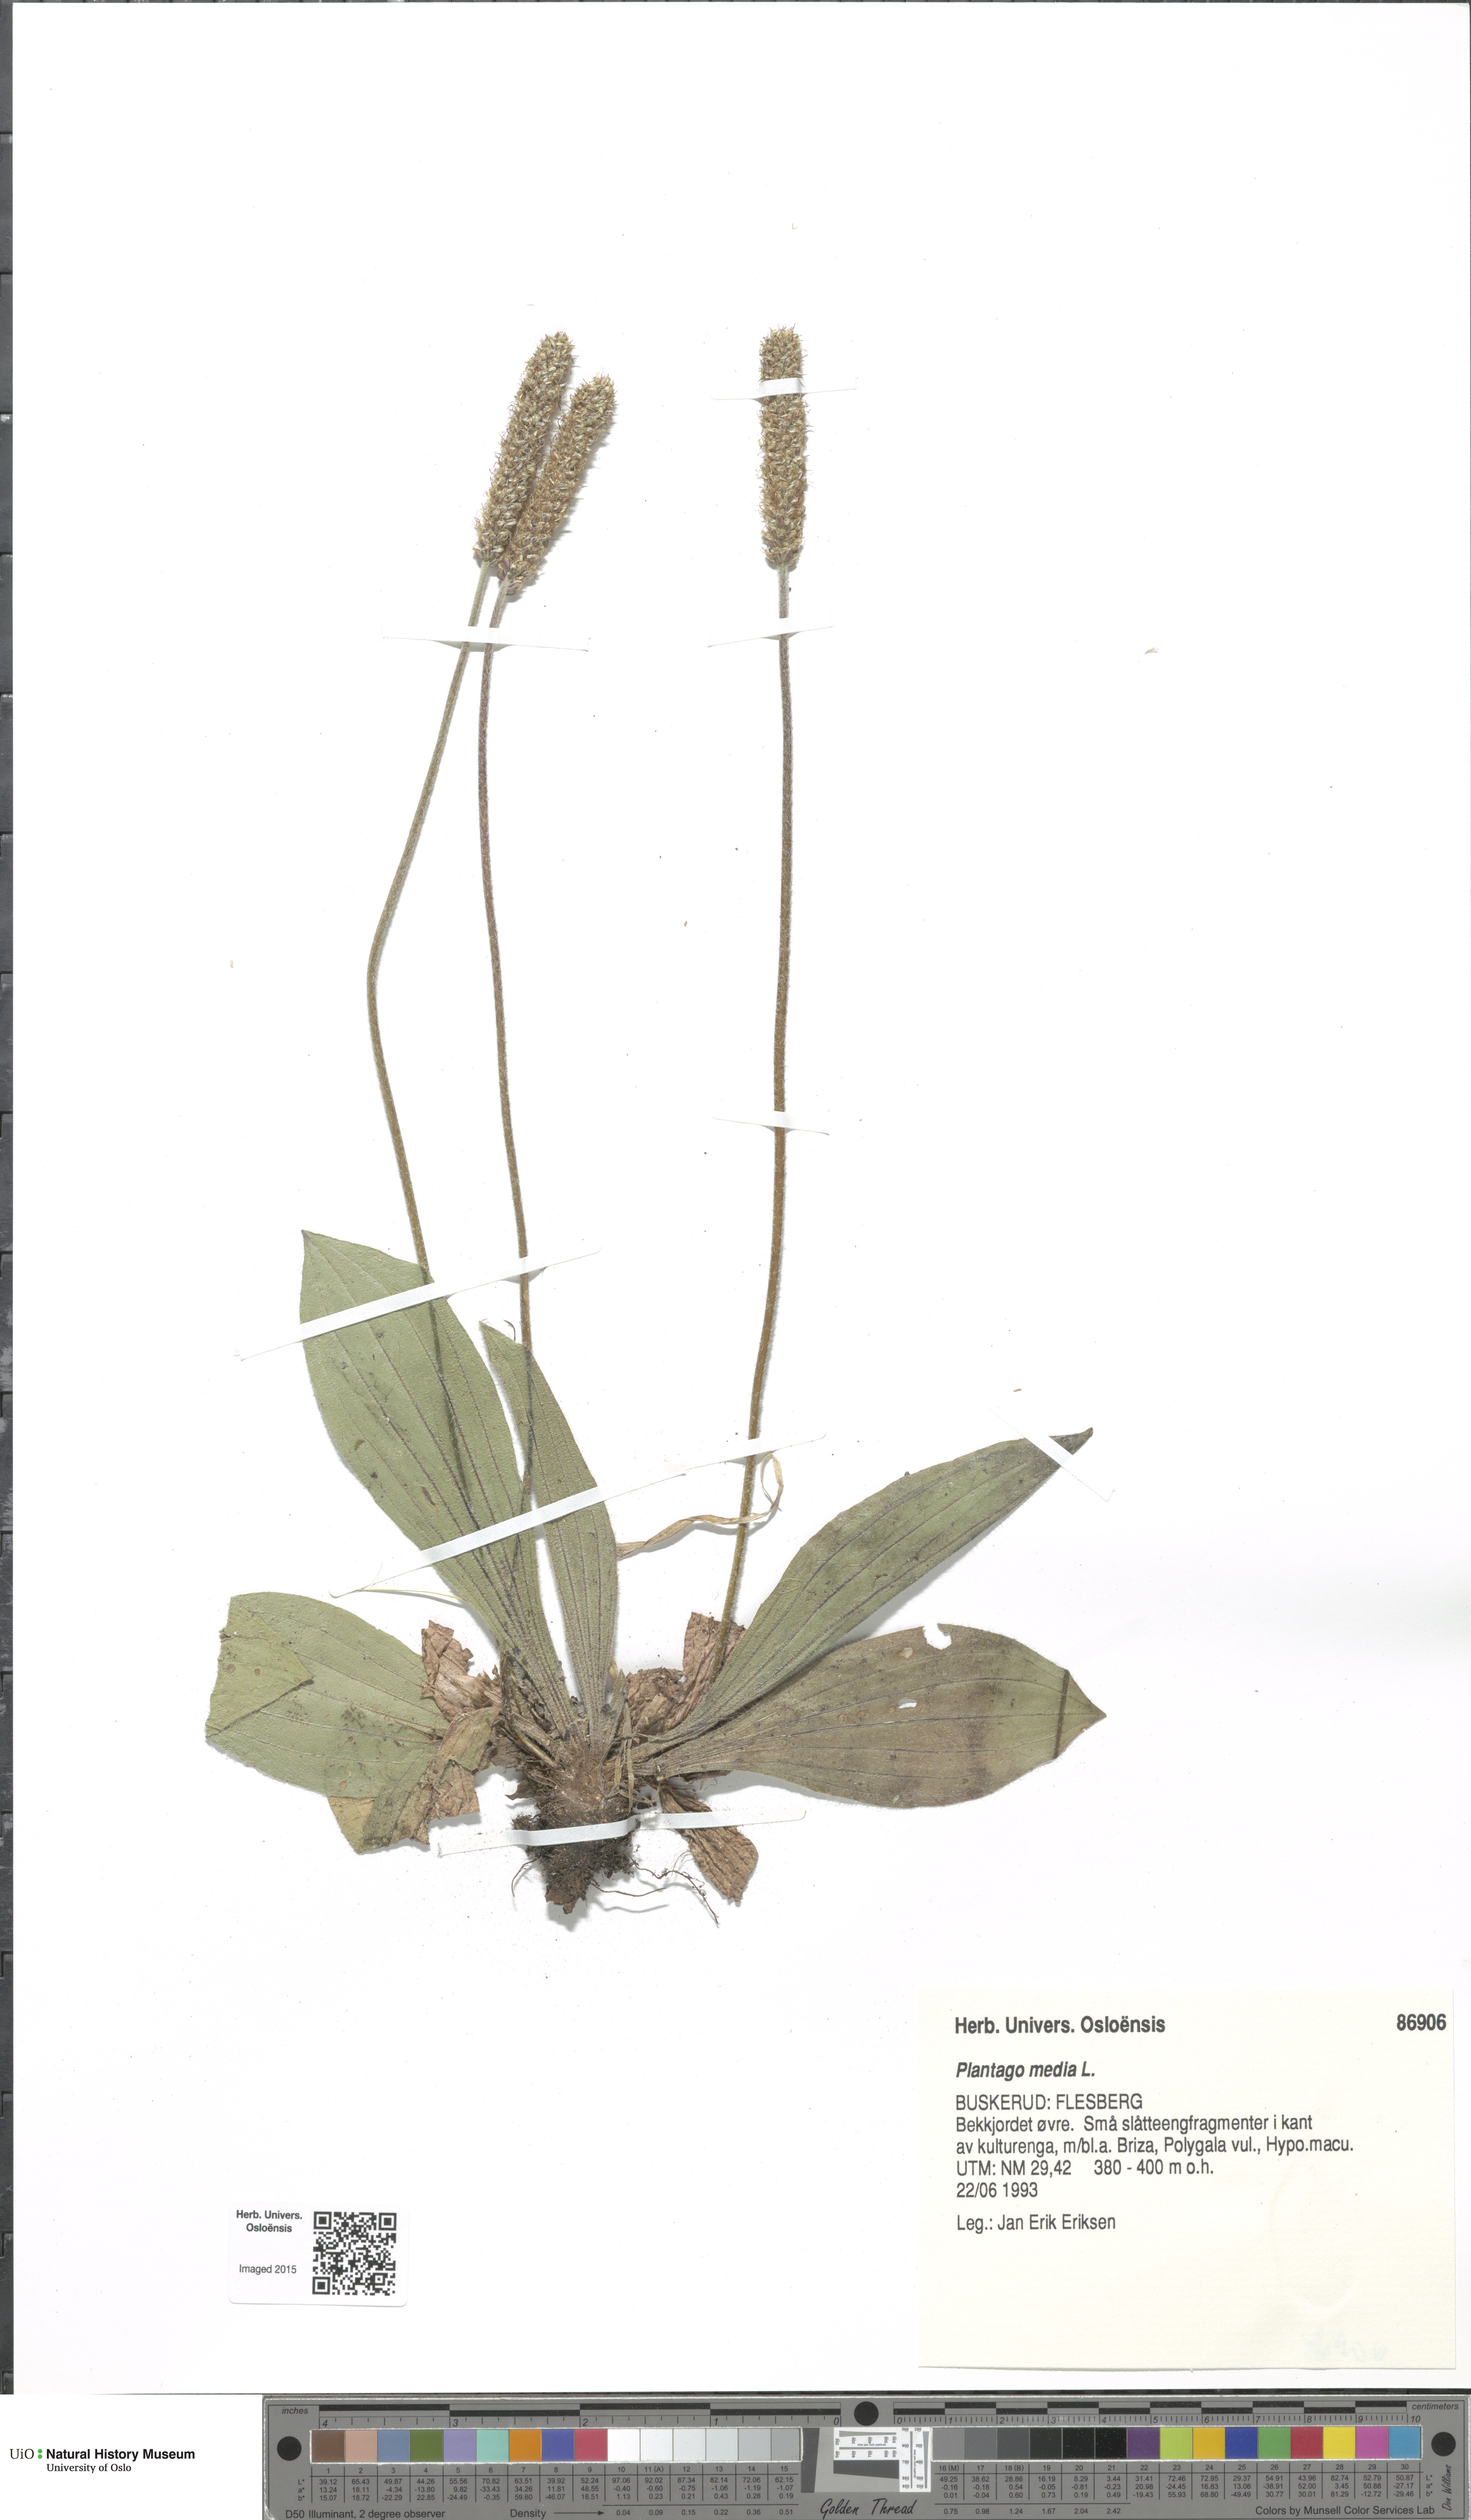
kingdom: Plantae
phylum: Tracheophyta
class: Magnoliopsida
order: Lamiales
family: Plantaginaceae
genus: Plantago
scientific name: Plantago media
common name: Hoary plantain
